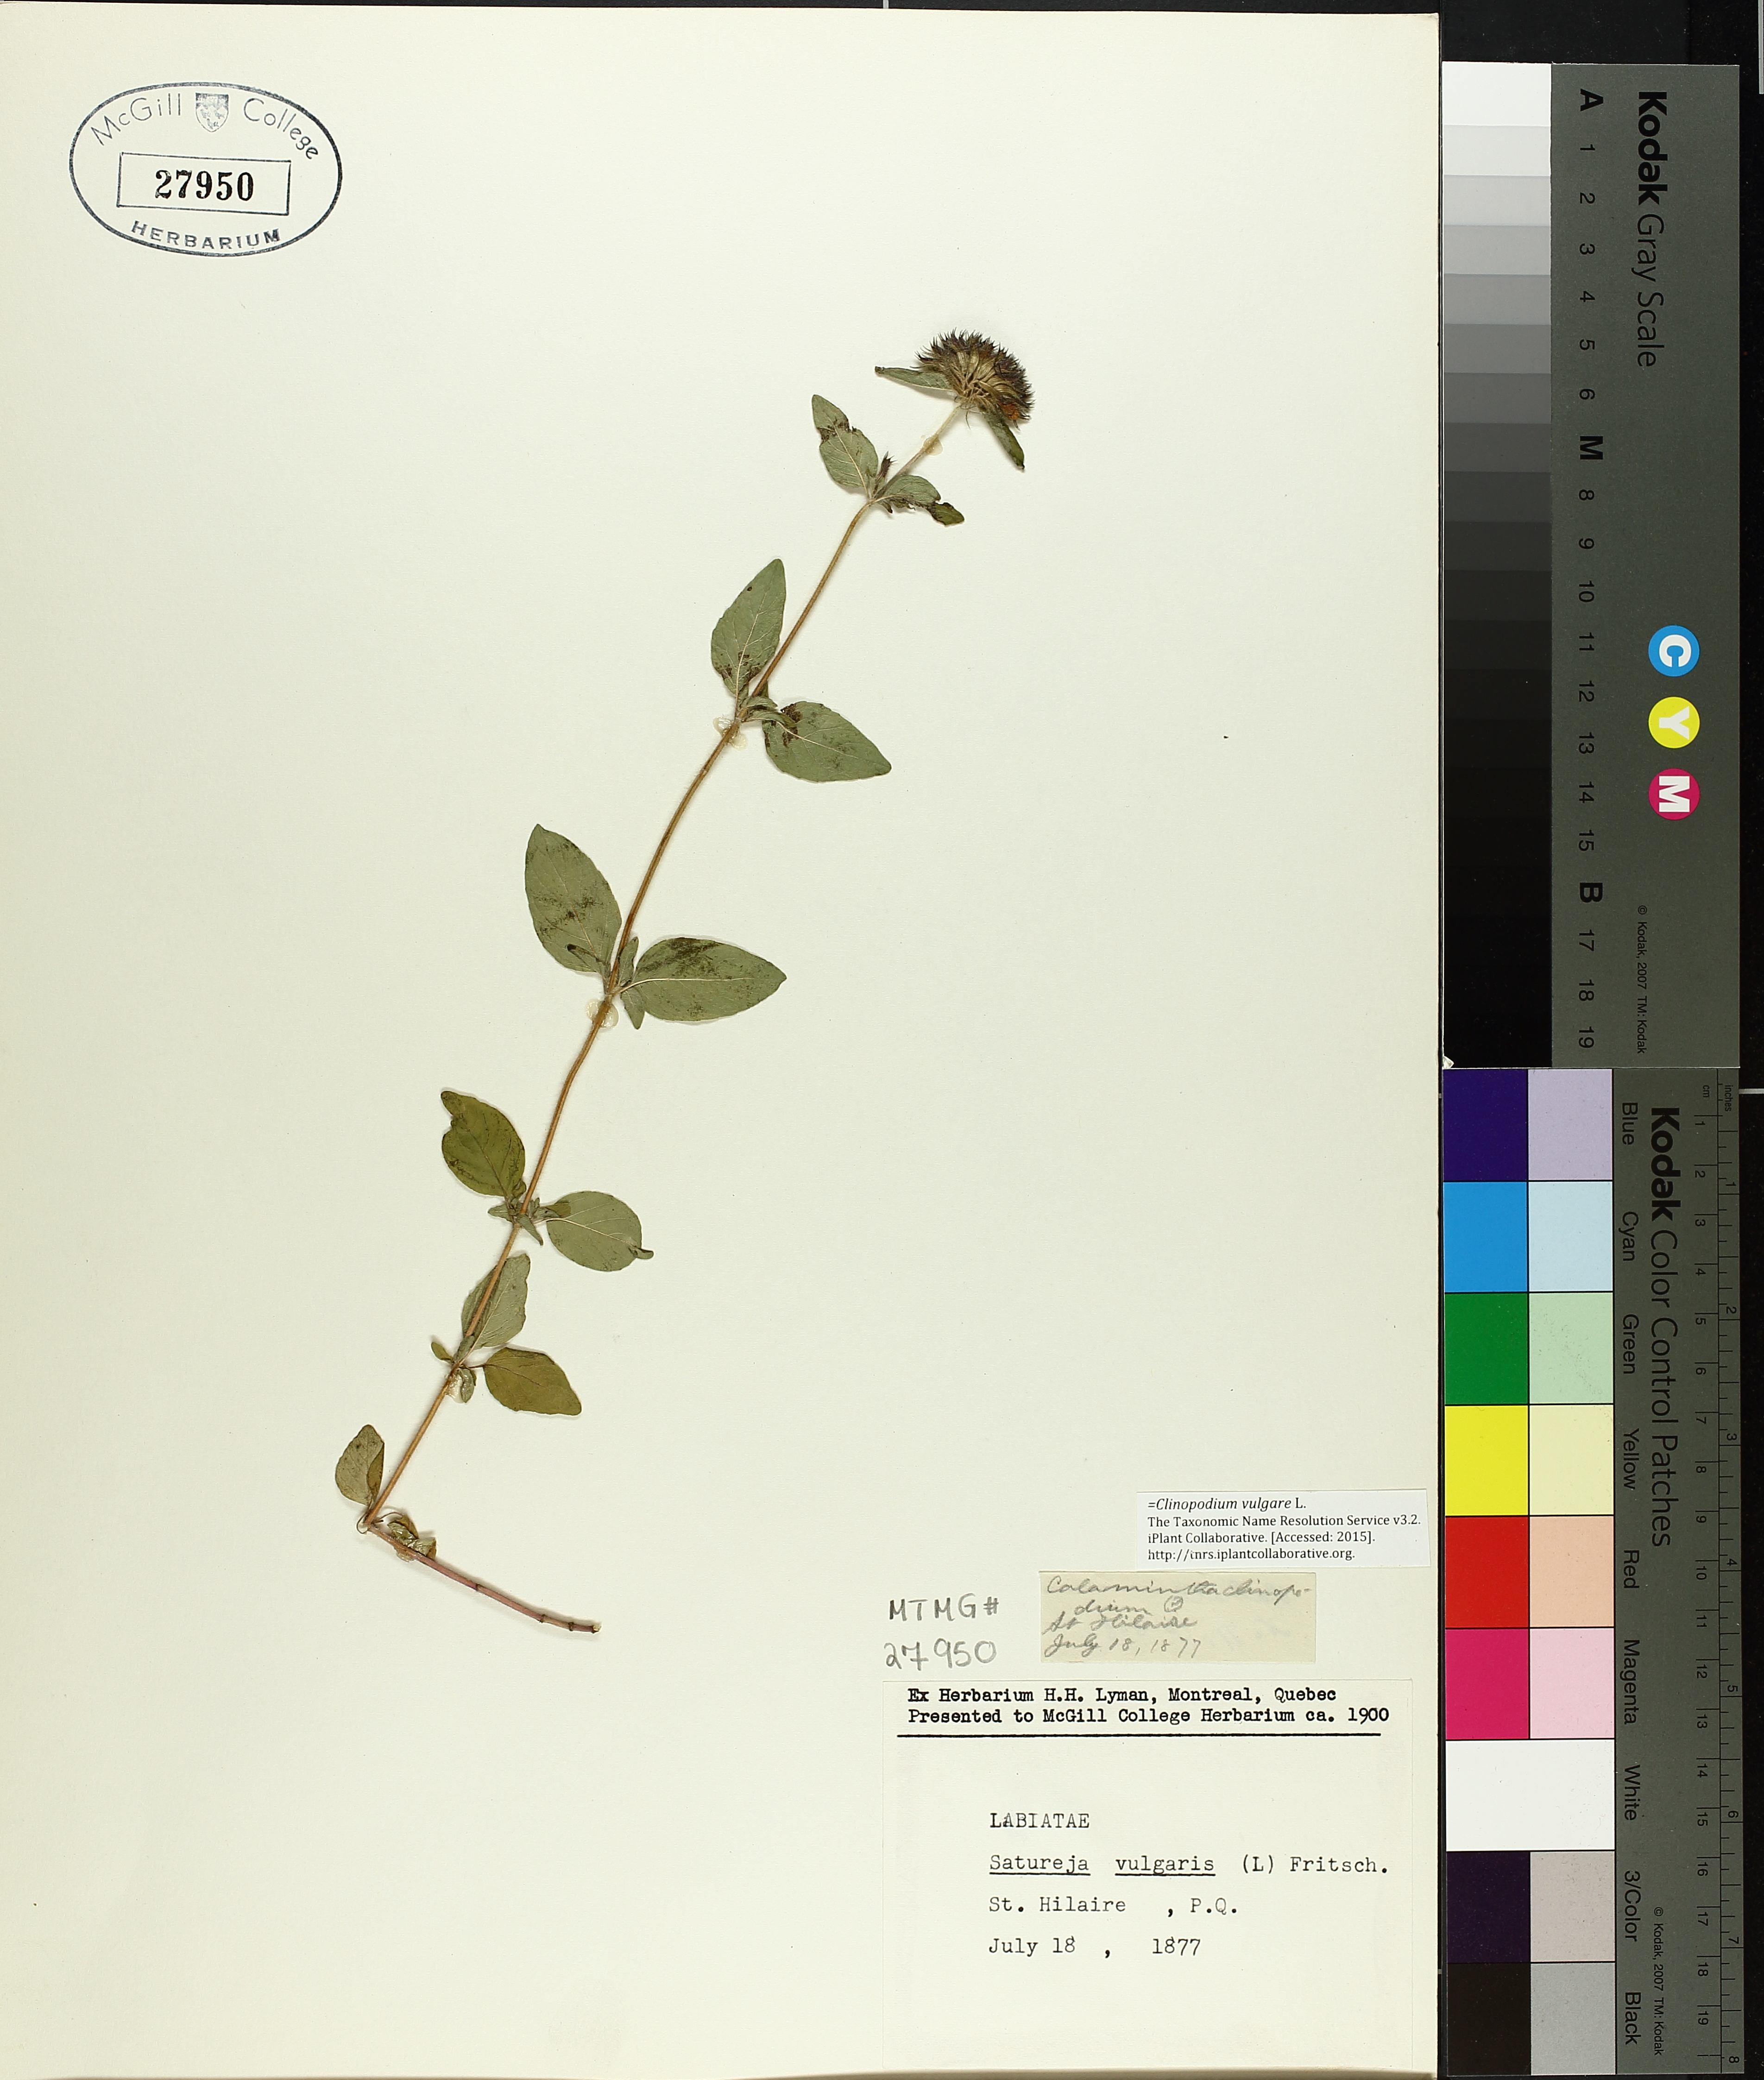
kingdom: Plantae
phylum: Tracheophyta
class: Magnoliopsida
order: Lamiales
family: Lamiaceae
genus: Clinopodium
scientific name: Clinopodium vulgare
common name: Wild basil
